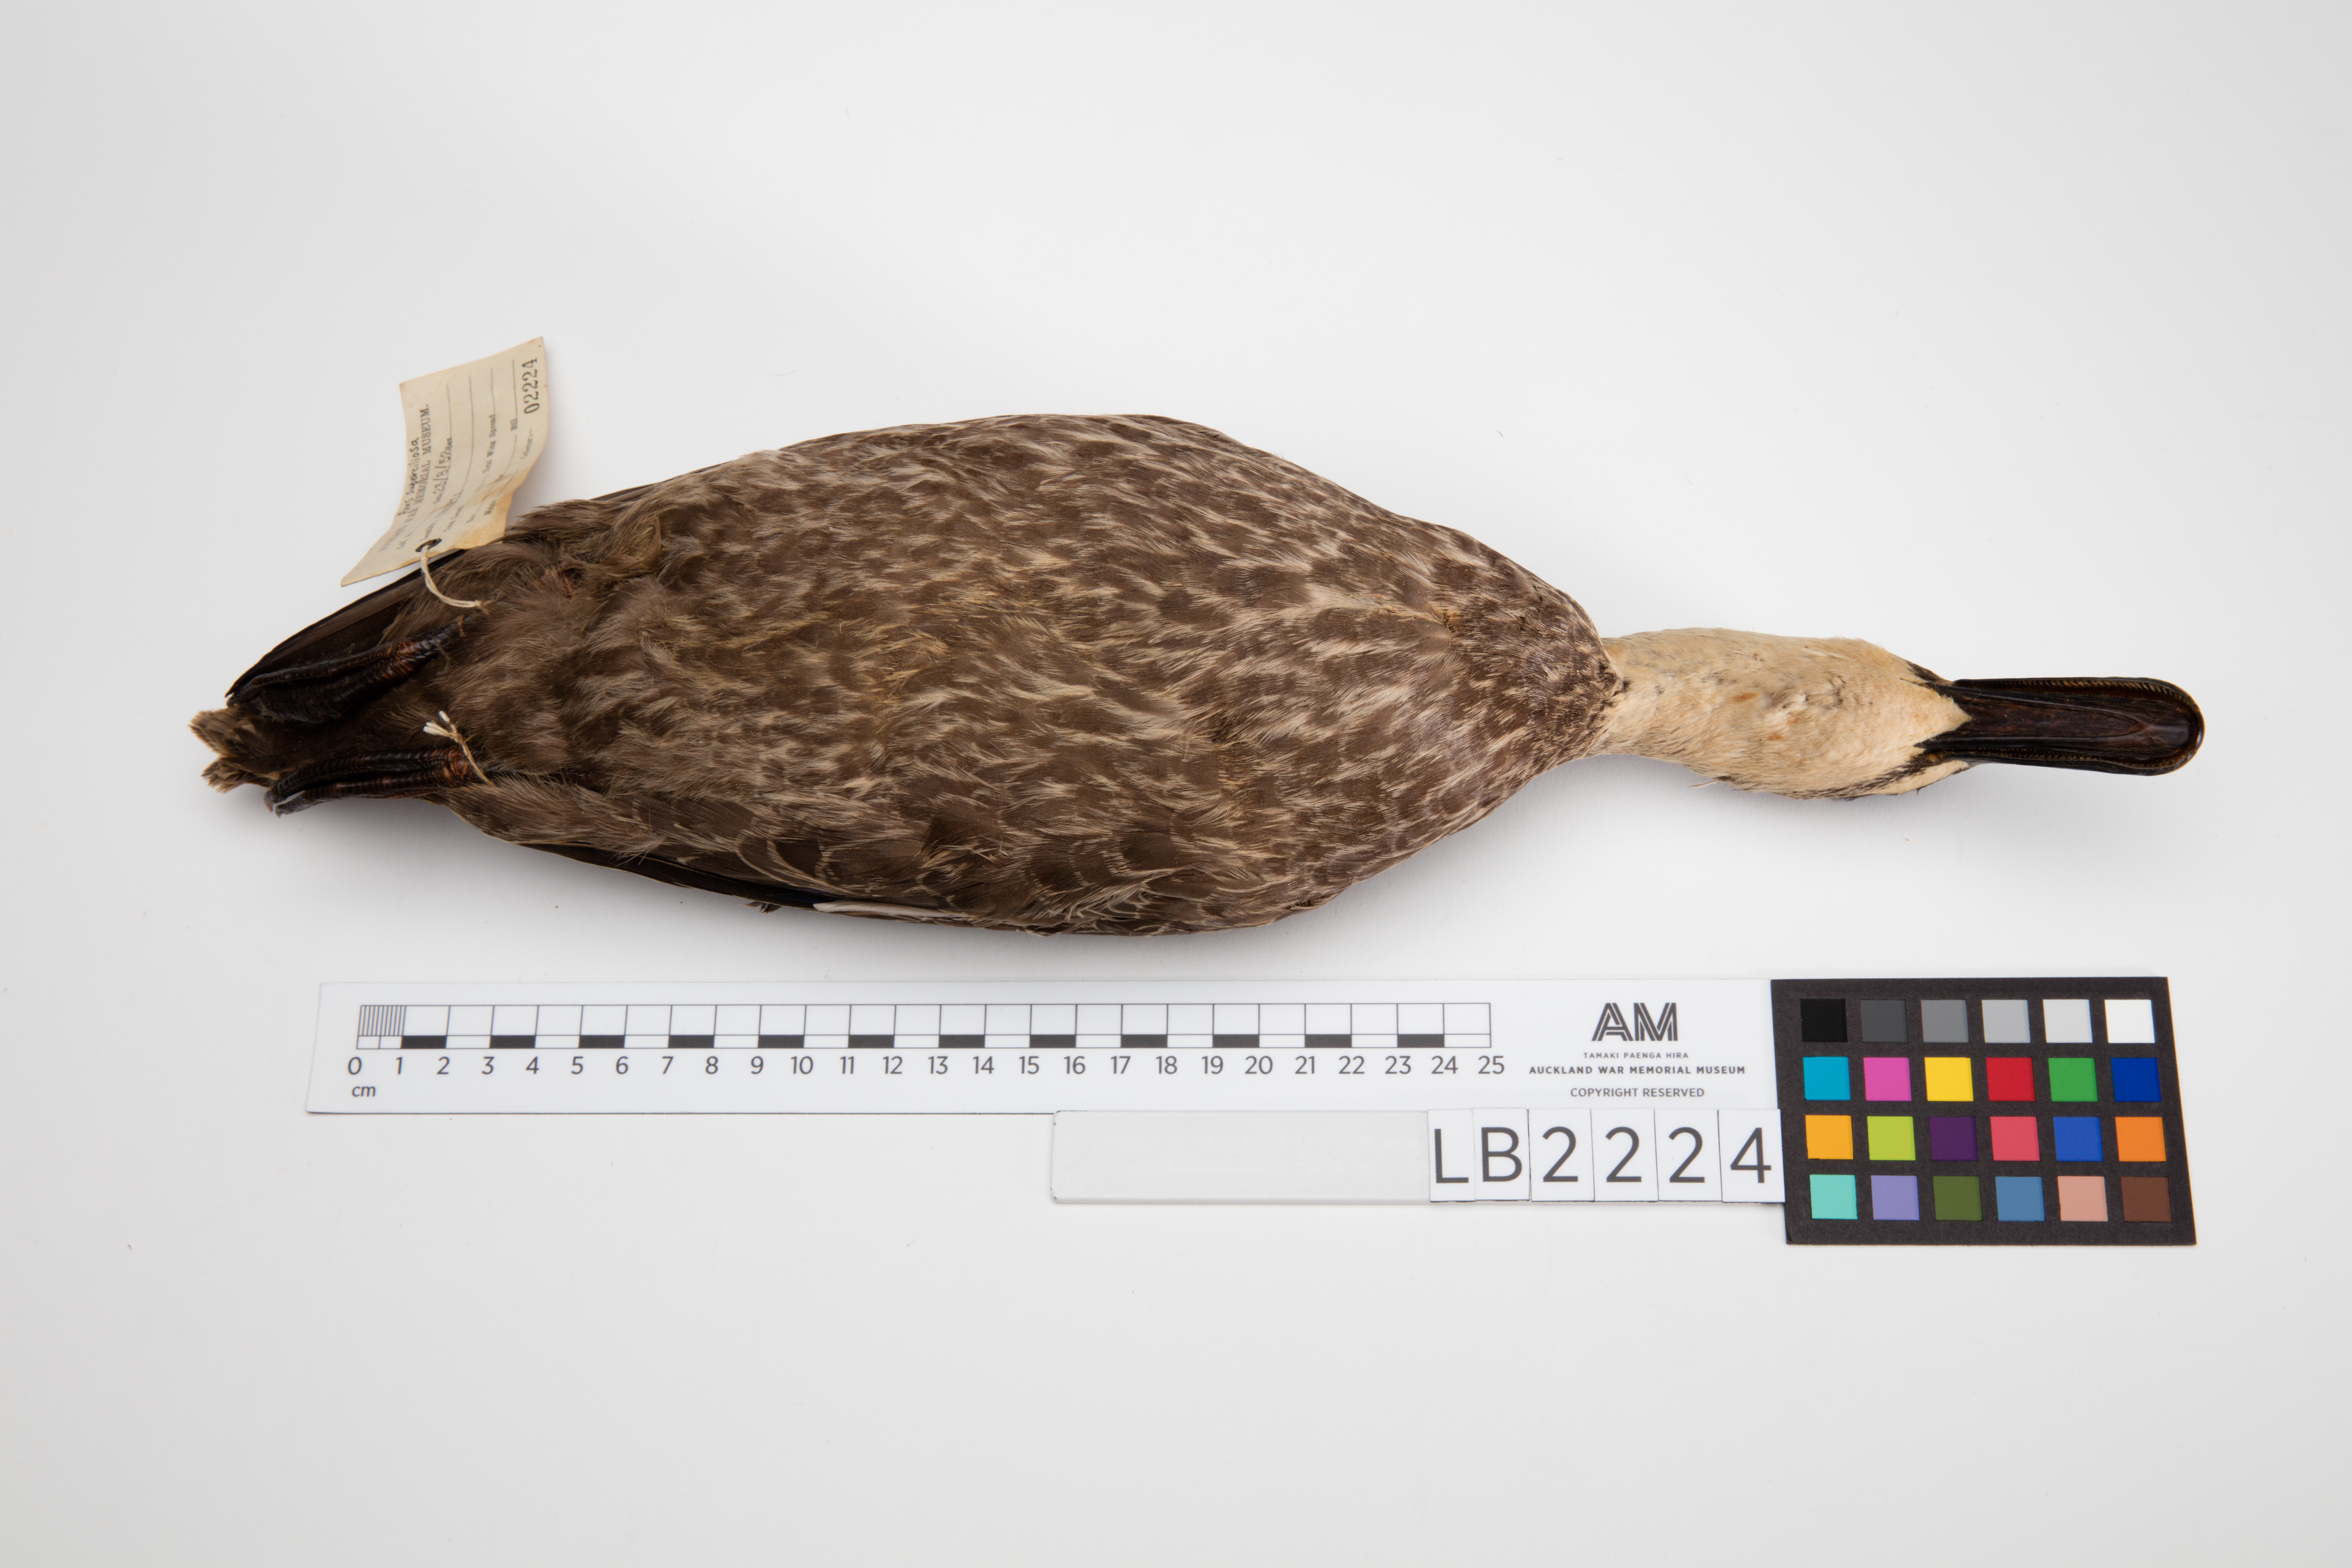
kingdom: Animalia
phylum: Chordata
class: Aves
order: Anseriformes
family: Anatidae
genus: Anas
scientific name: Anas superciliosa
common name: Pacific black duck
